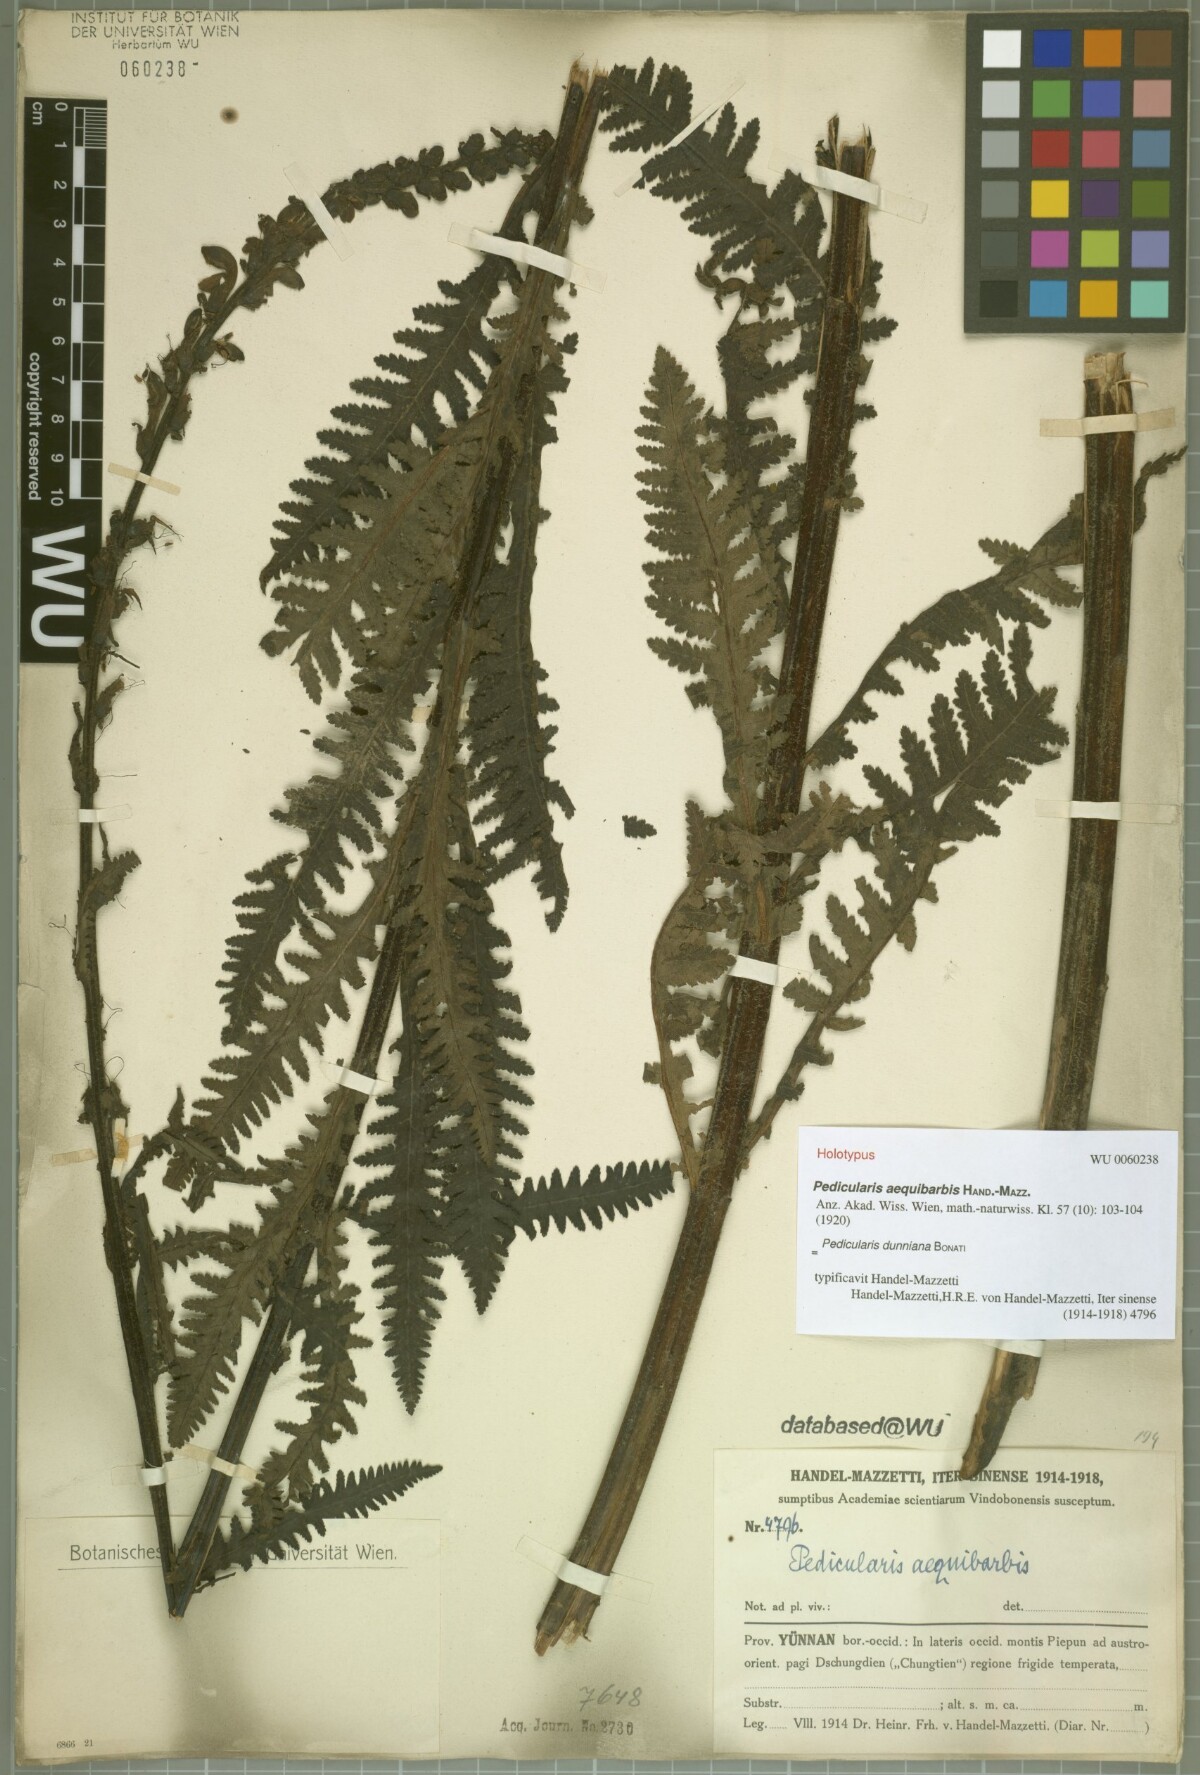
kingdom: Plantae
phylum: Tracheophyta
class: Magnoliopsida
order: Lamiales
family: Orobanchaceae
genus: Pedicularis
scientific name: Pedicularis dunniana
